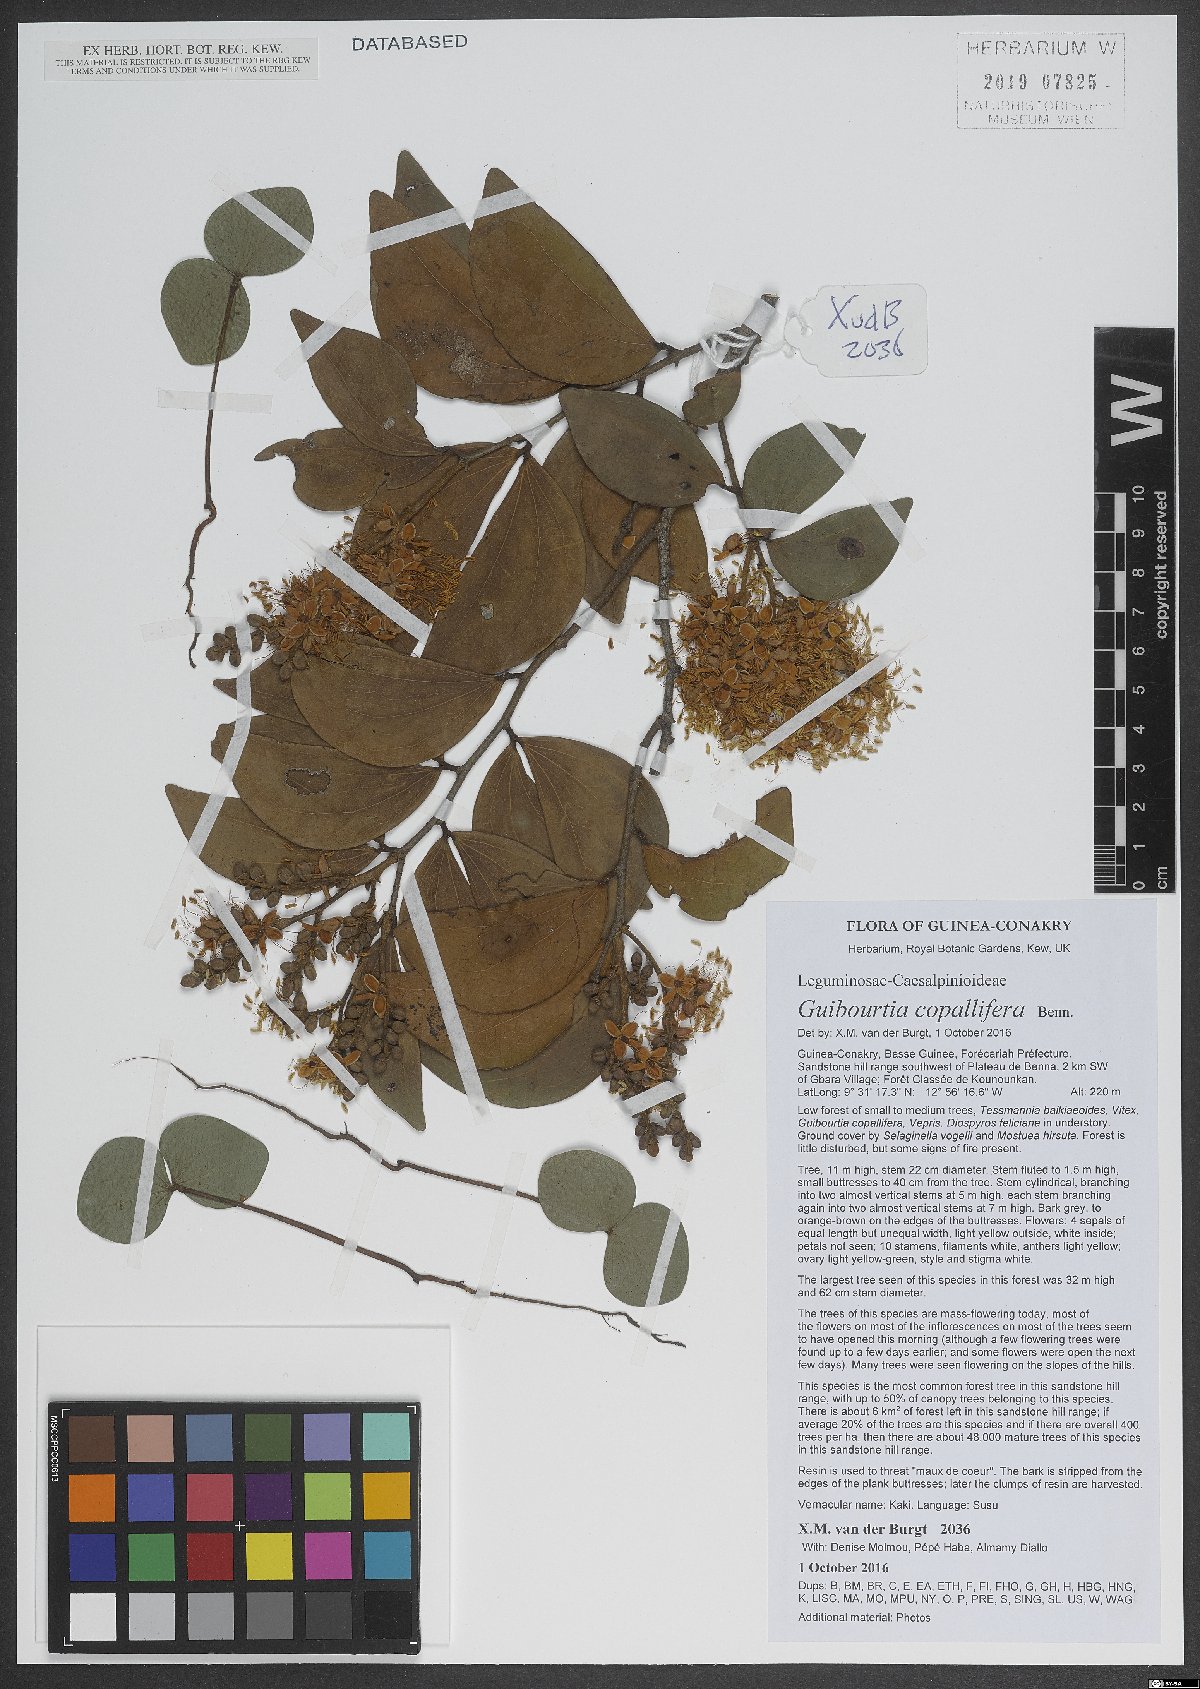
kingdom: Plantae
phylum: Tracheophyta
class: Magnoliopsida
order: Fabales
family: Fabaceae
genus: Guibourtia
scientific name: Guibourtia copallifera
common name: Kobo tree
